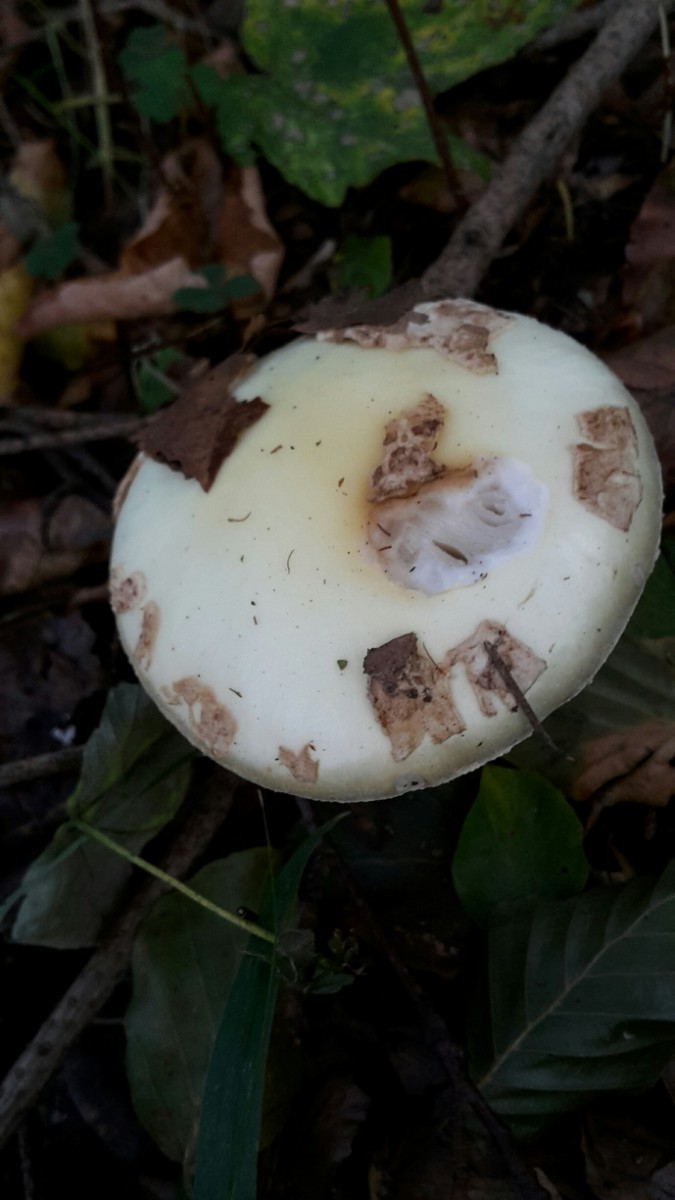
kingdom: Fungi
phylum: Basidiomycota
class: Agaricomycetes
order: Agaricales
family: Amanitaceae
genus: Amanita
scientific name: Amanita citrina
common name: kugleknoldet fluesvamp
